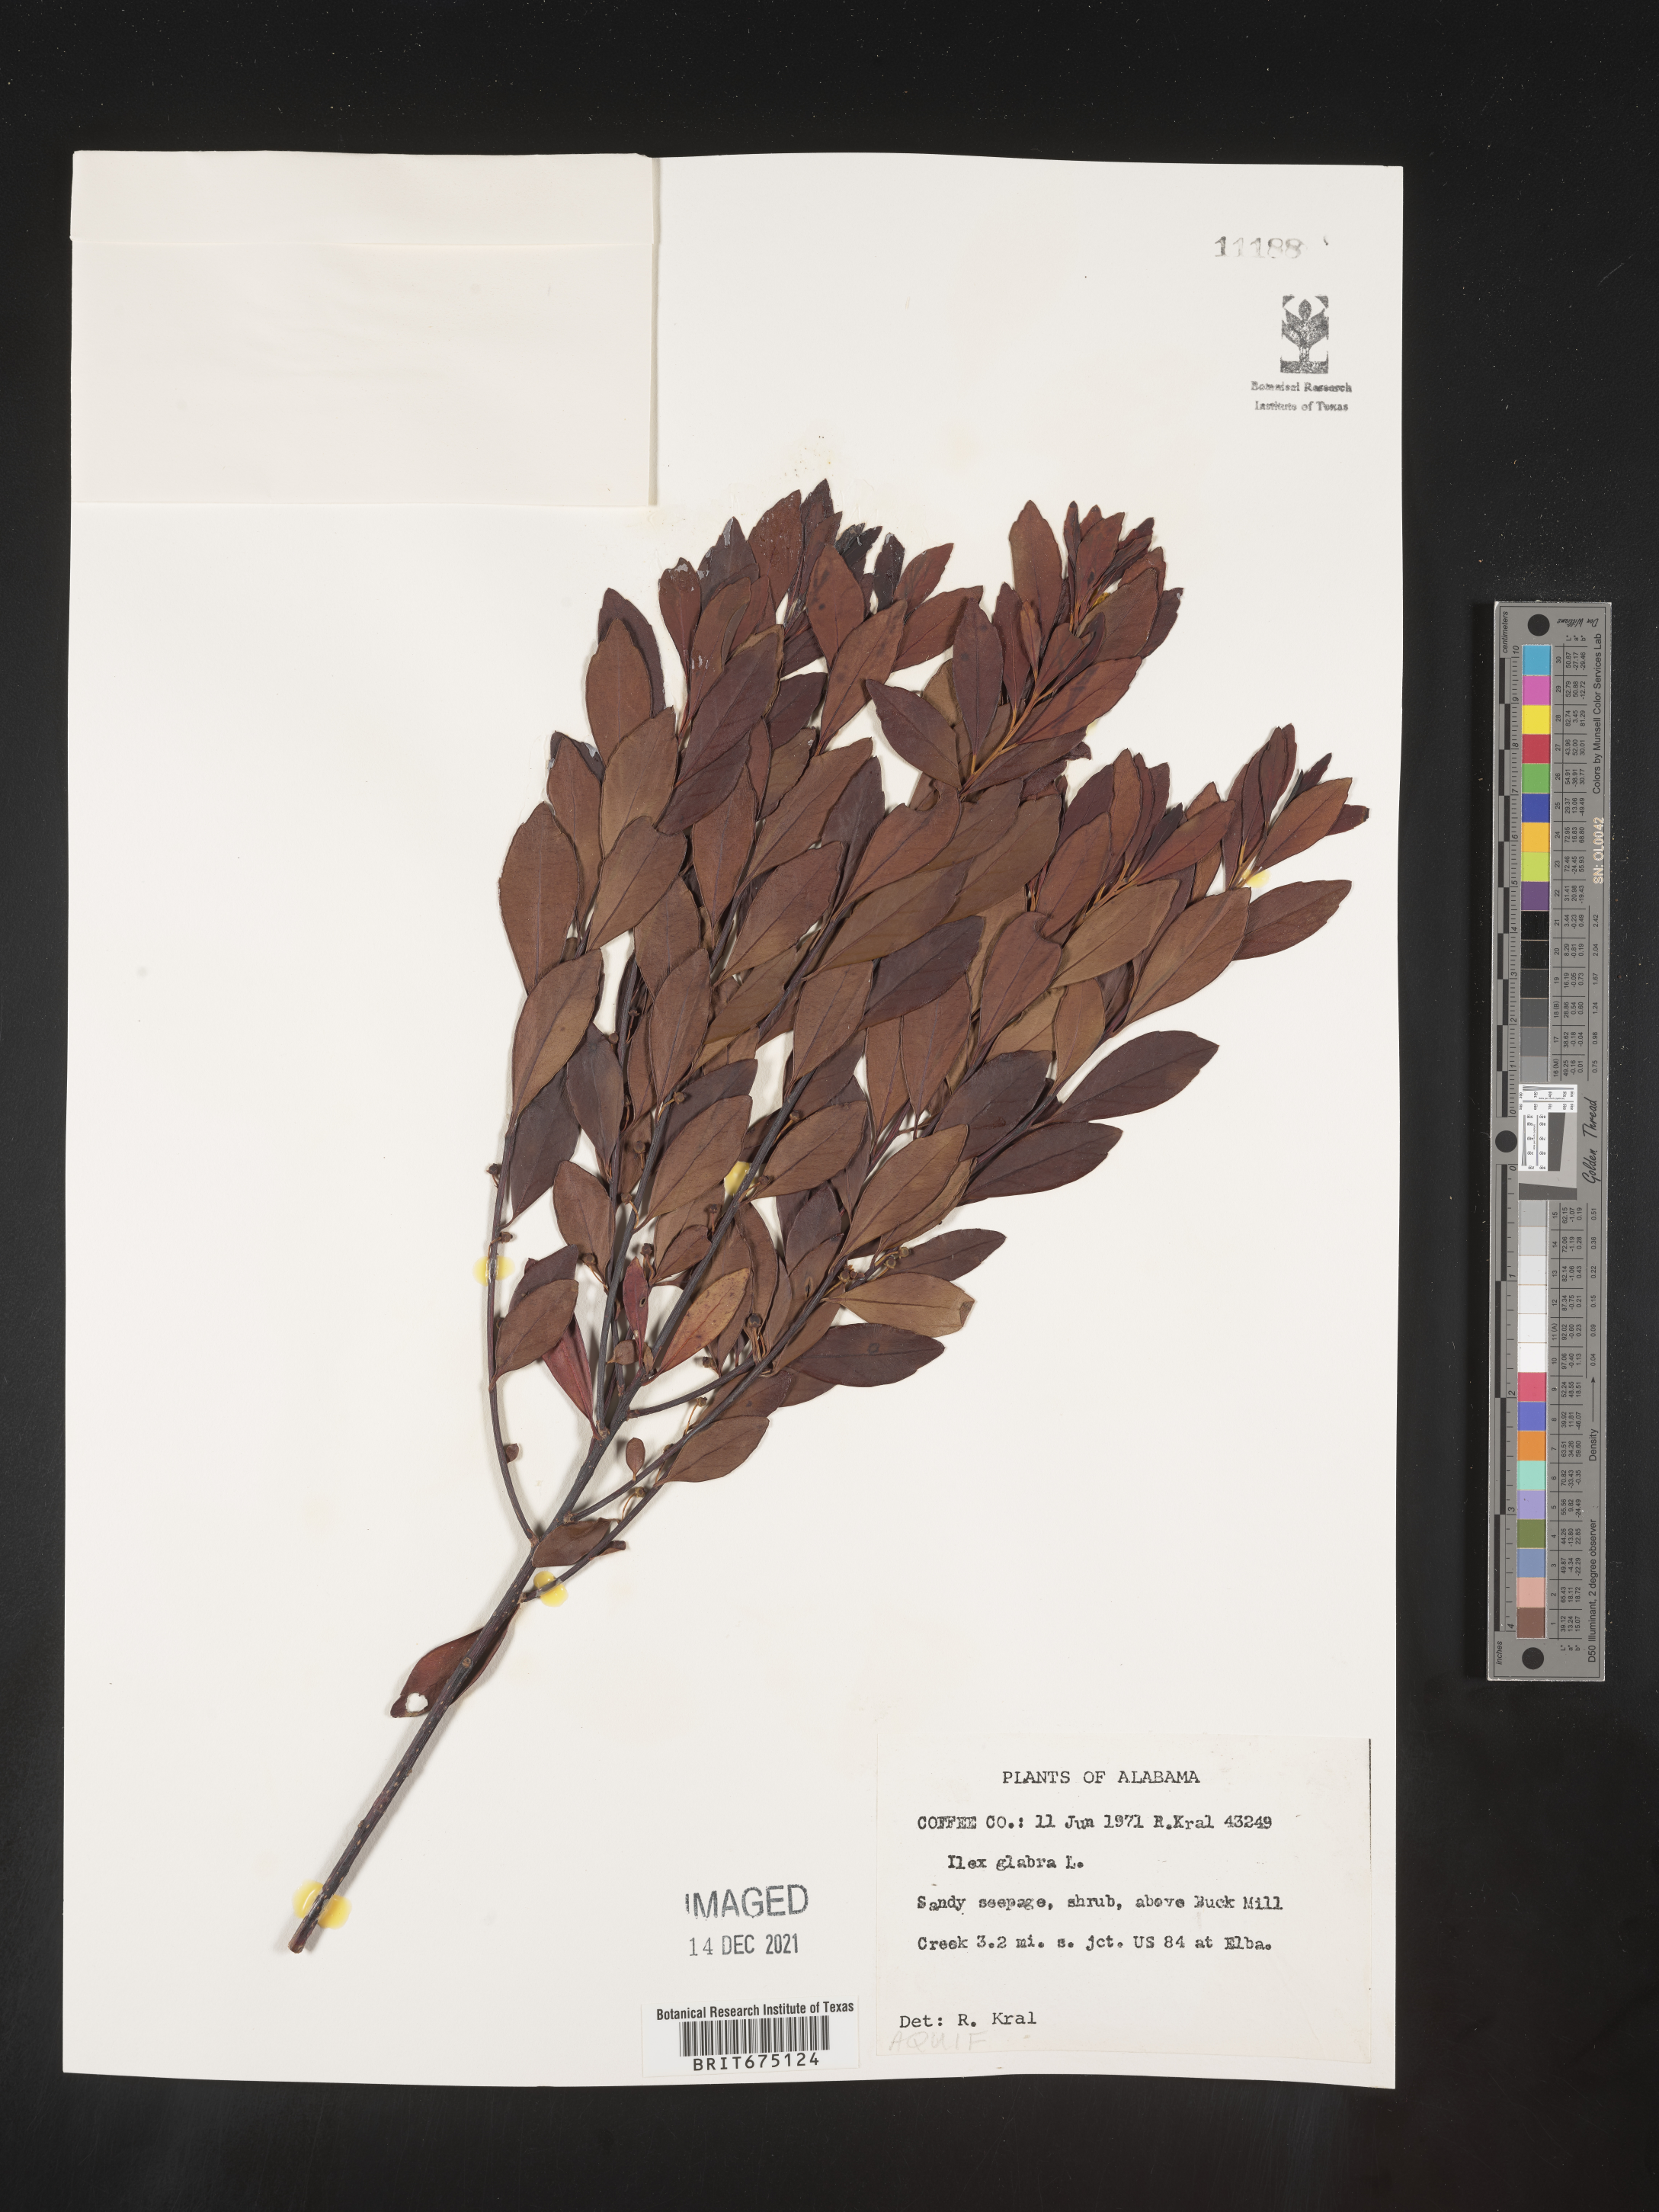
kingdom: Plantae
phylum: Tracheophyta
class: Magnoliopsida
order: Aquifoliales
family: Aquifoliaceae
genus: Ilex
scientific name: Ilex glabra
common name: Bitter gallberry
